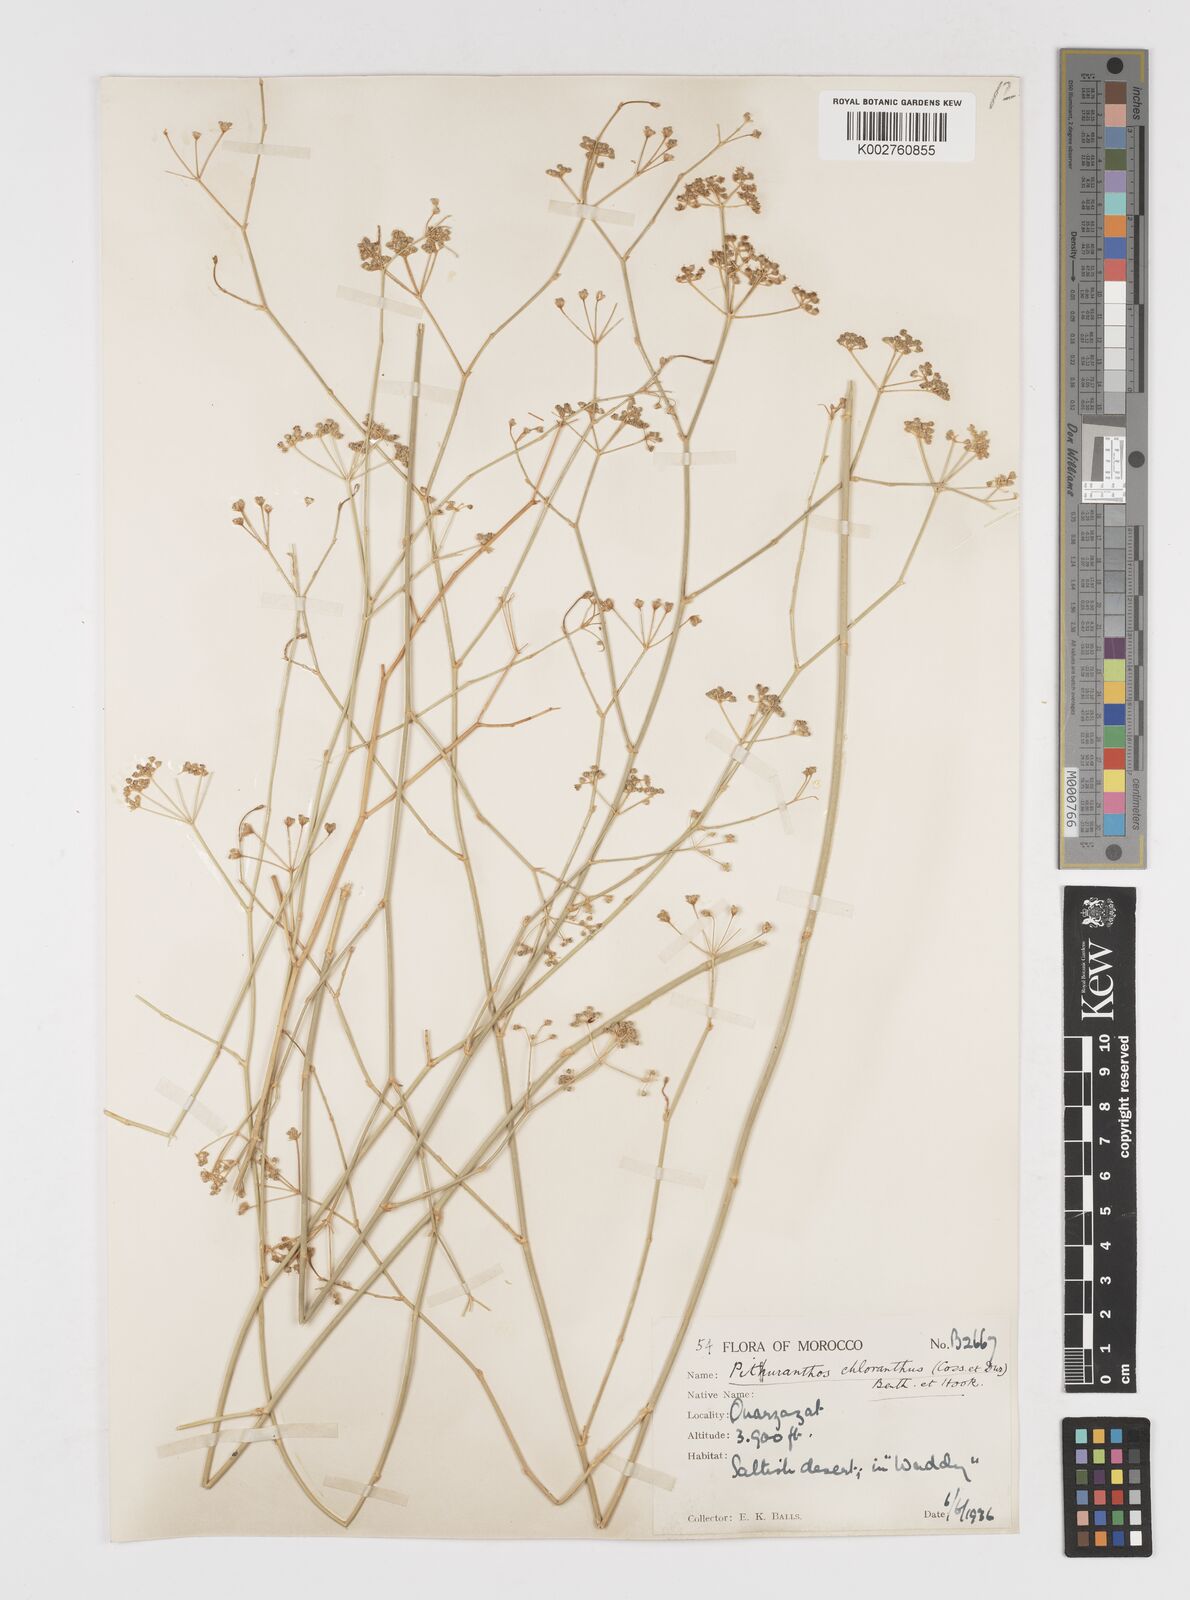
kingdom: Plantae
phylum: Tracheophyta
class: Magnoliopsida
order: Apiales
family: Apiaceae
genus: Deverra
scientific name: Deverra denudata
